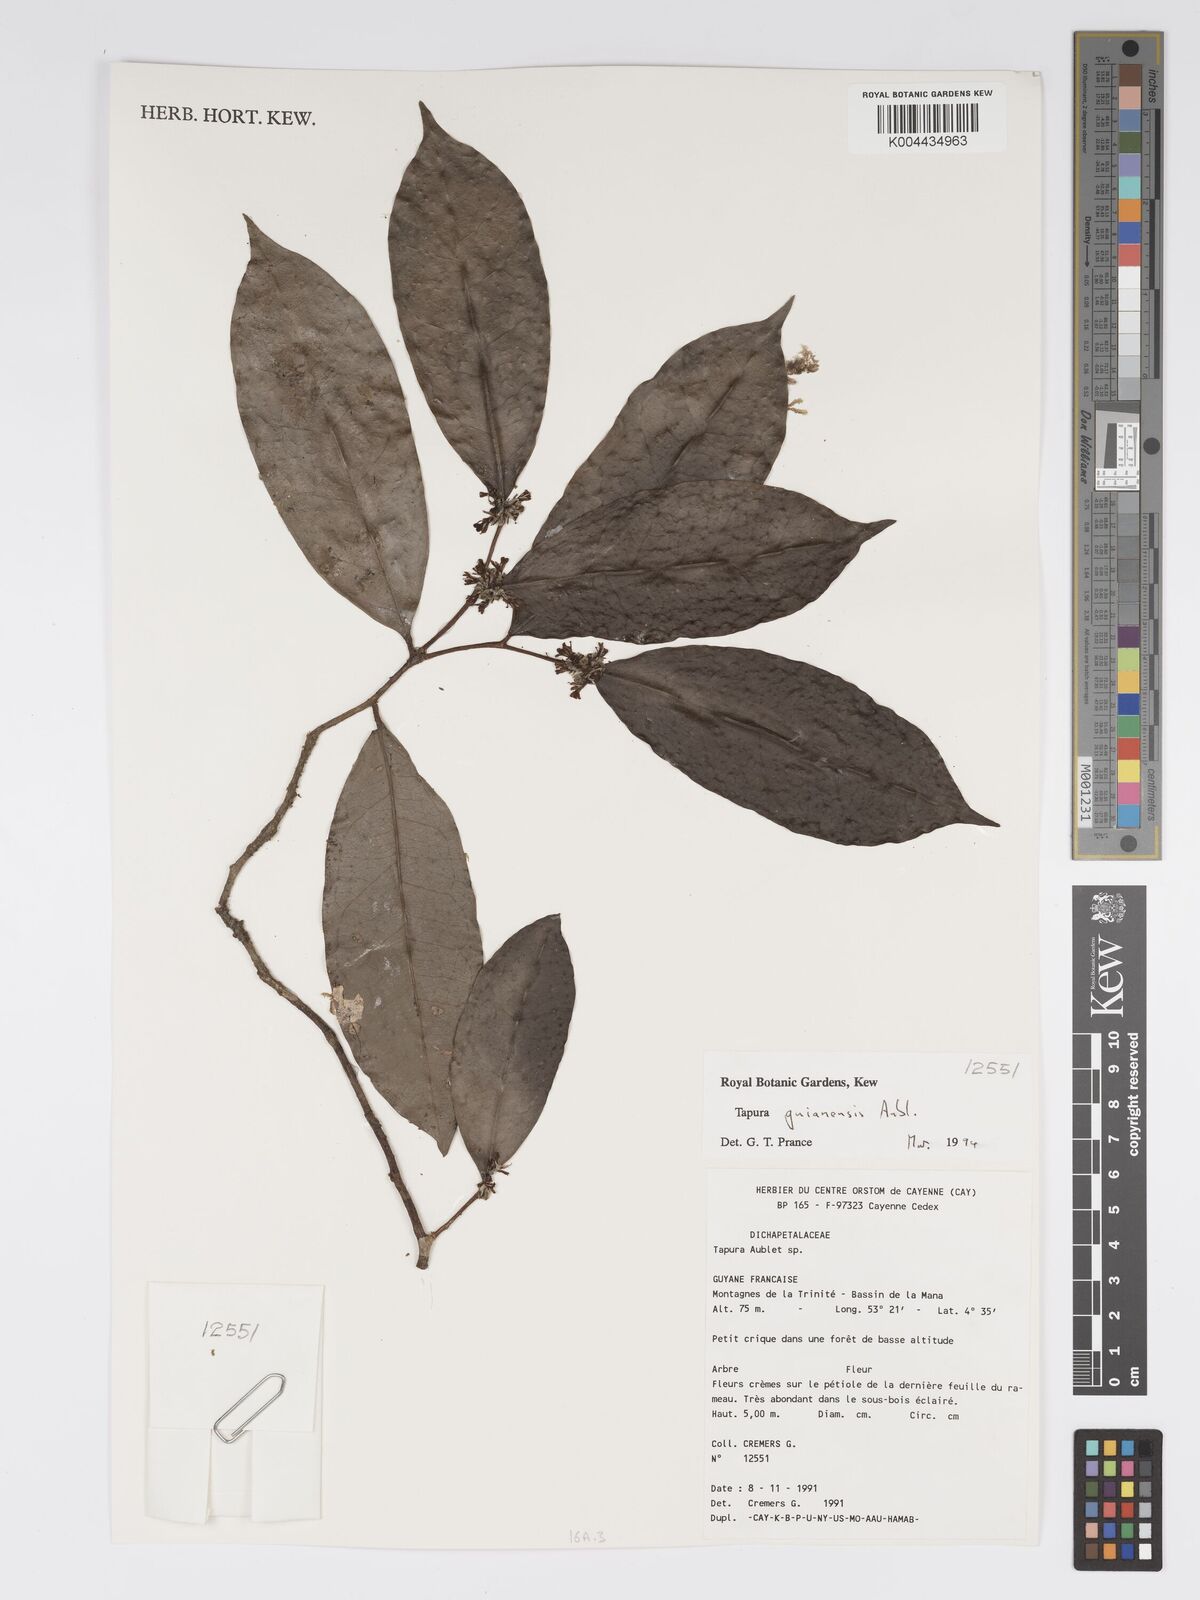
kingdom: Plantae
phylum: Tracheophyta
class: Magnoliopsida
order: Malpighiales
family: Dichapetalaceae
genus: Tapura
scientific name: Tapura guianensis
